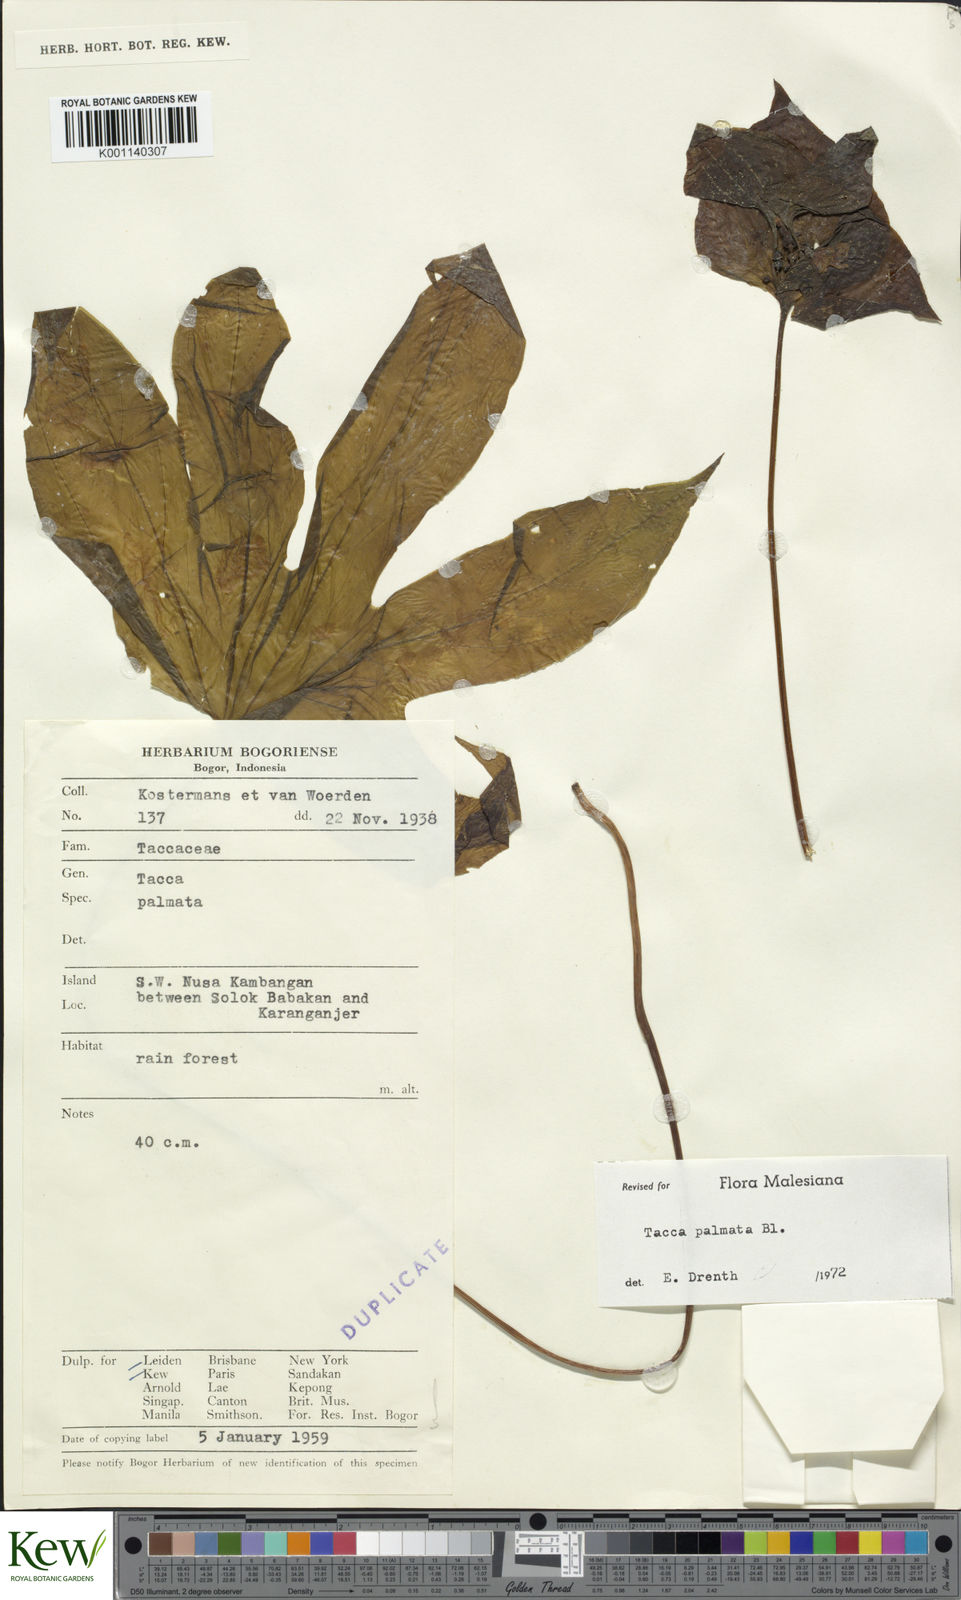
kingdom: Plantae
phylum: Tracheophyta
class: Liliopsida
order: Dioscoreales
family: Dioscoreaceae
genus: Tacca
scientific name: Tacca palmata
